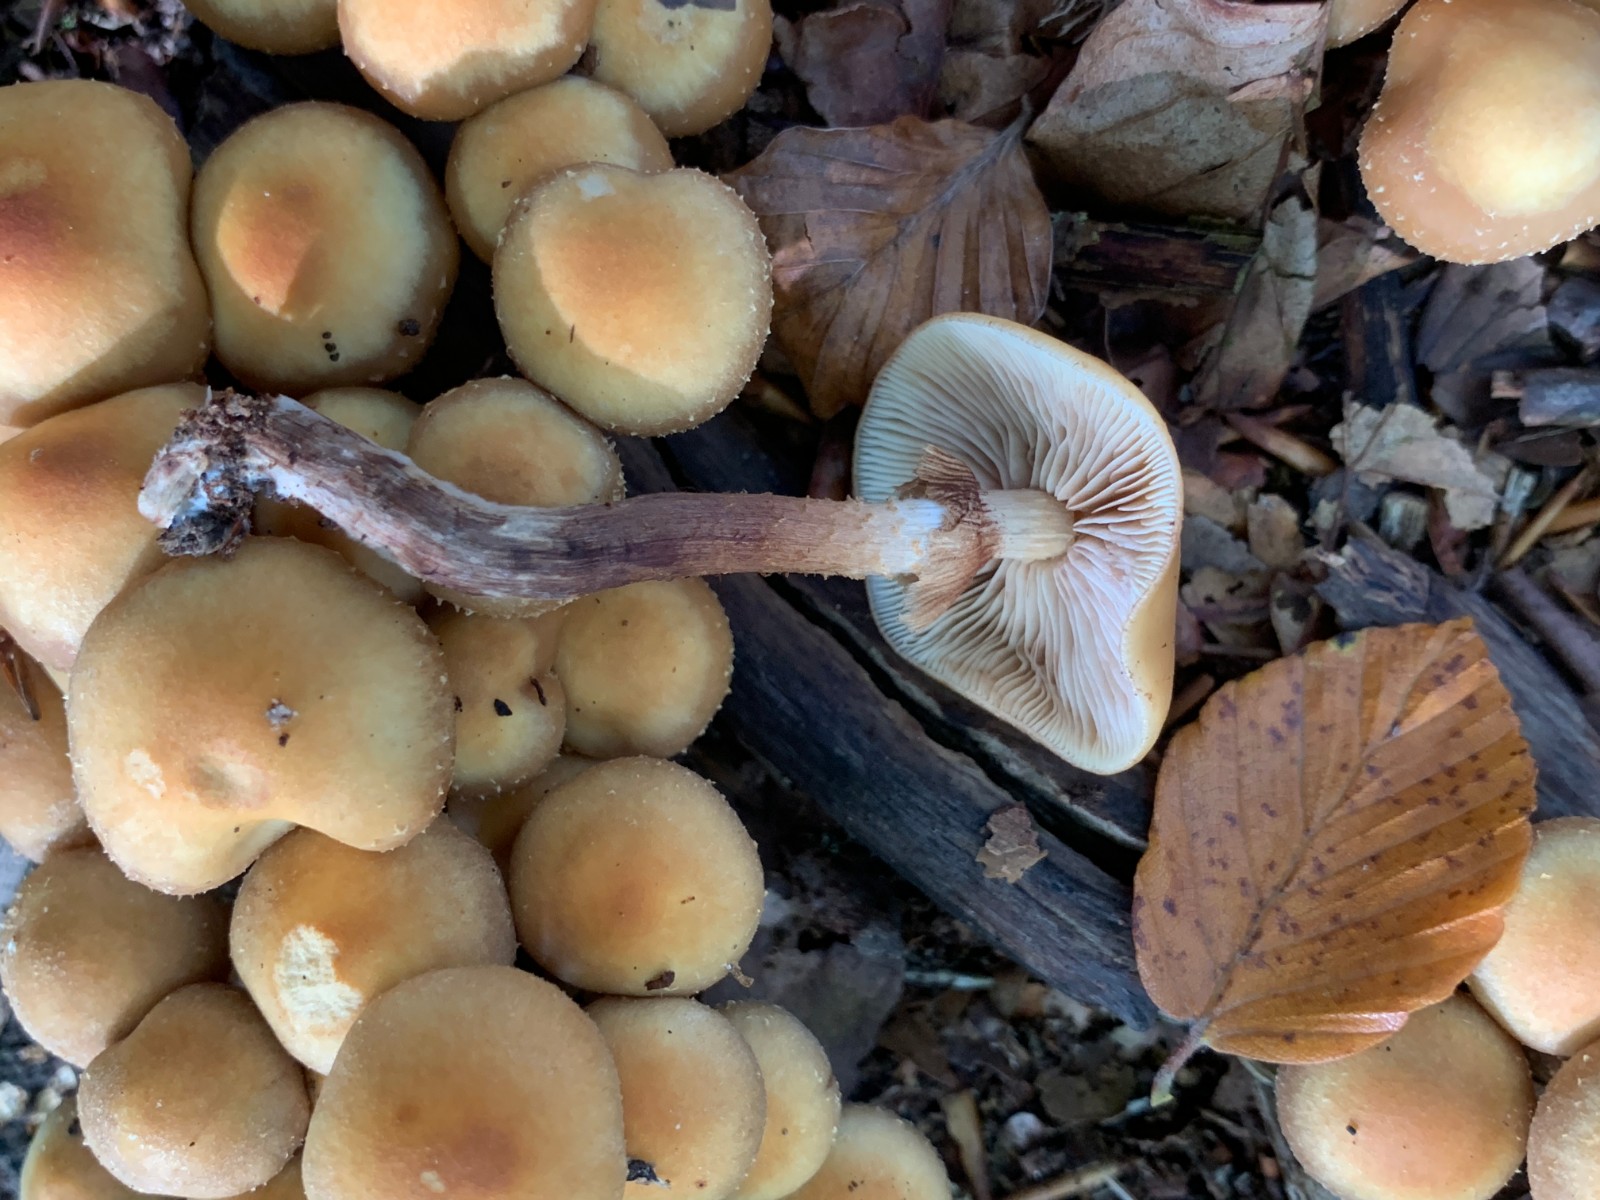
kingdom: Fungi
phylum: Basidiomycota
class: Agaricomycetes
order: Agaricales
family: Strophariaceae
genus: Kuehneromyces
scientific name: Kuehneromyces mutabilis
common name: foranderlig skælhat
